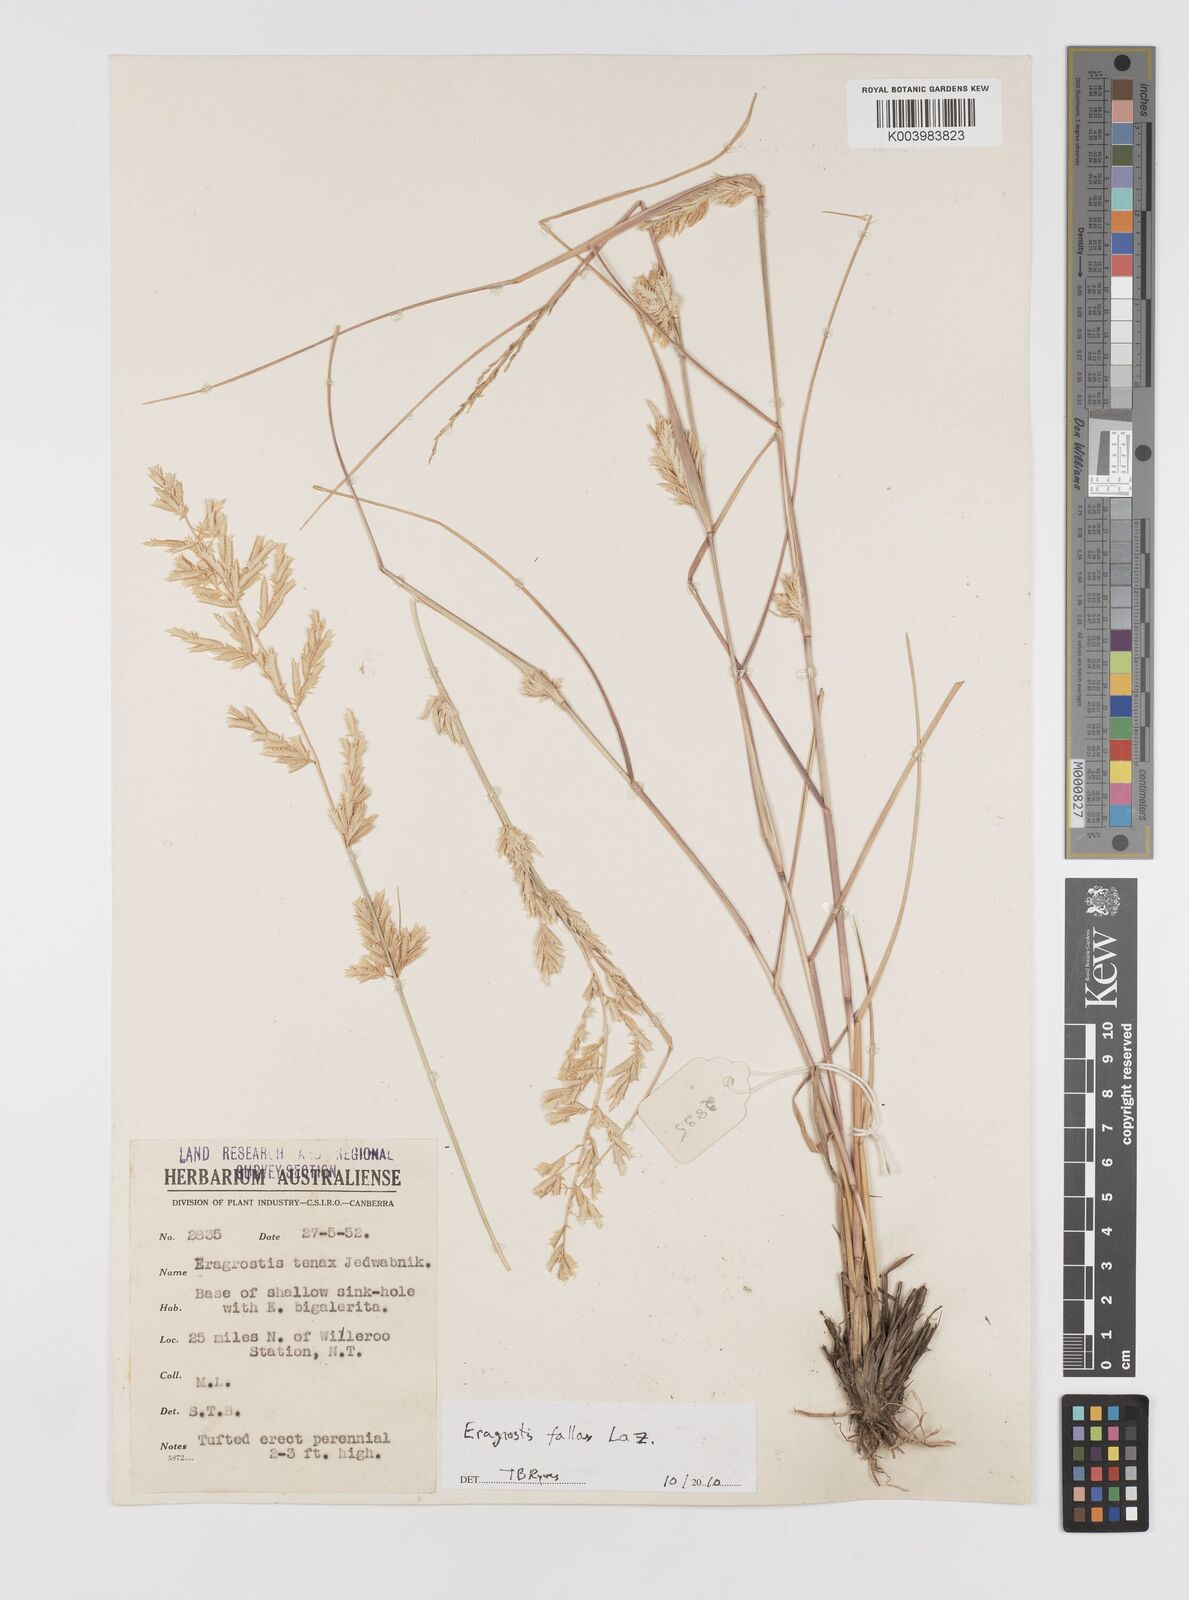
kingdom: Plantae
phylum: Tracheophyta
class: Liliopsida
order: Poales
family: Poaceae
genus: Eragrostis
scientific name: Eragrostis fallax
